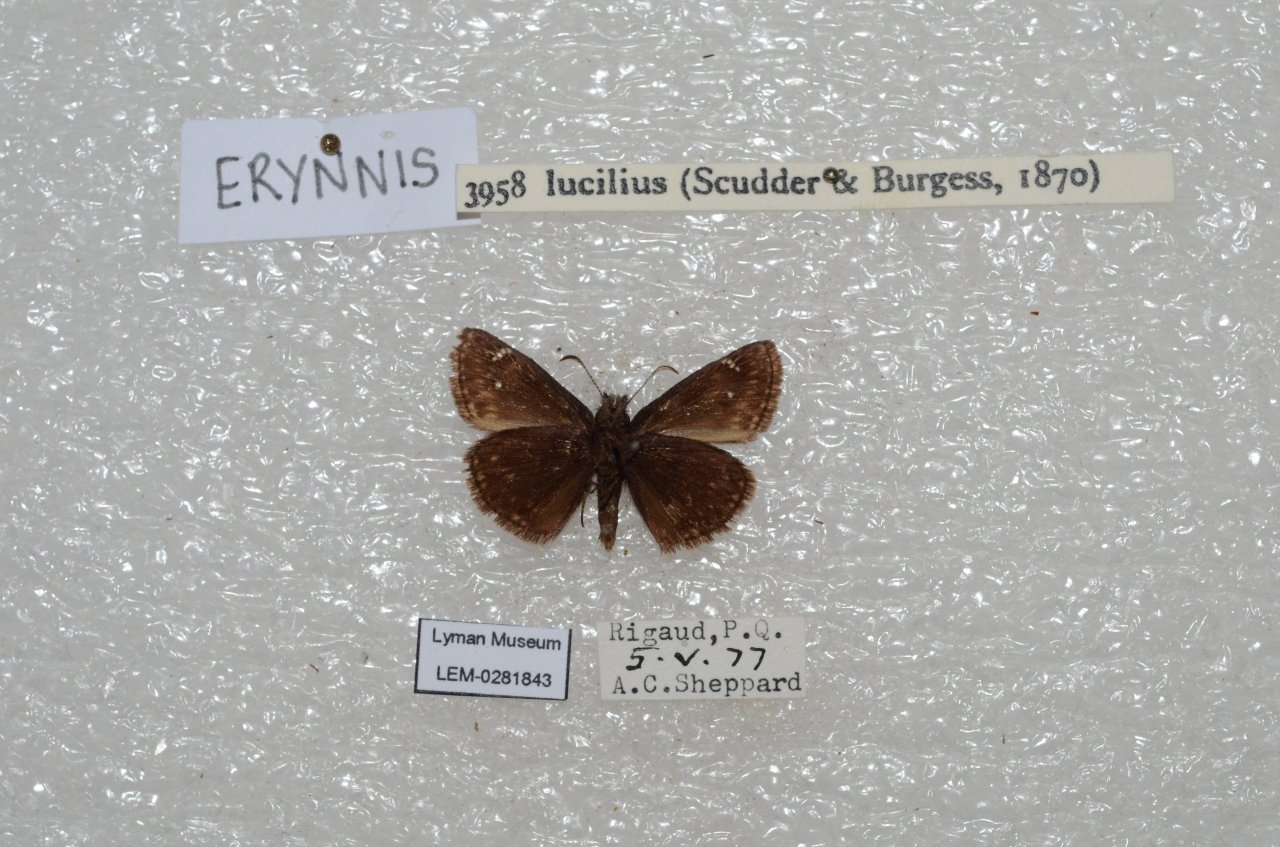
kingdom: Animalia
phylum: Arthropoda
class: Insecta
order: Lepidoptera
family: Hesperiidae
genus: Gesta
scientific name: Gesta
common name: Columbine Duskywing
